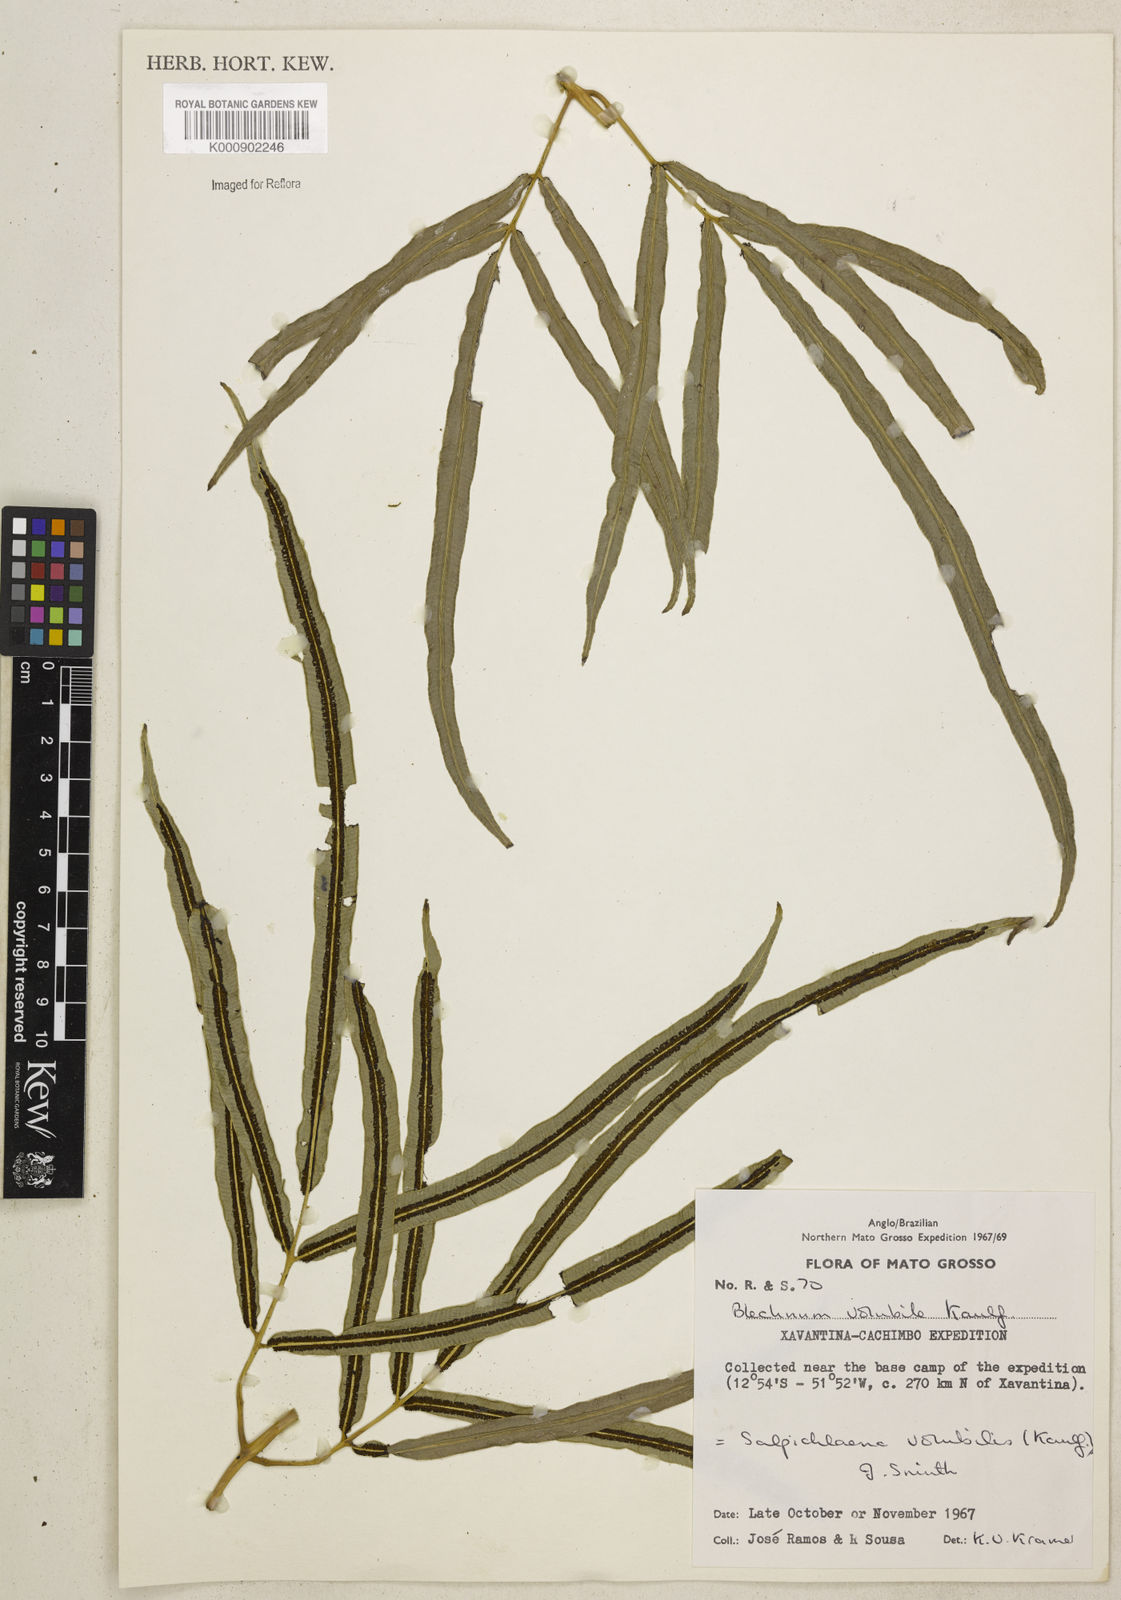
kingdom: Plantae
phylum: Tracheophyta
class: Polypodiopsida
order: Polypodiales
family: Blechnaceae
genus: Salpichlaena
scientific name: Salpichlaena volubilis
